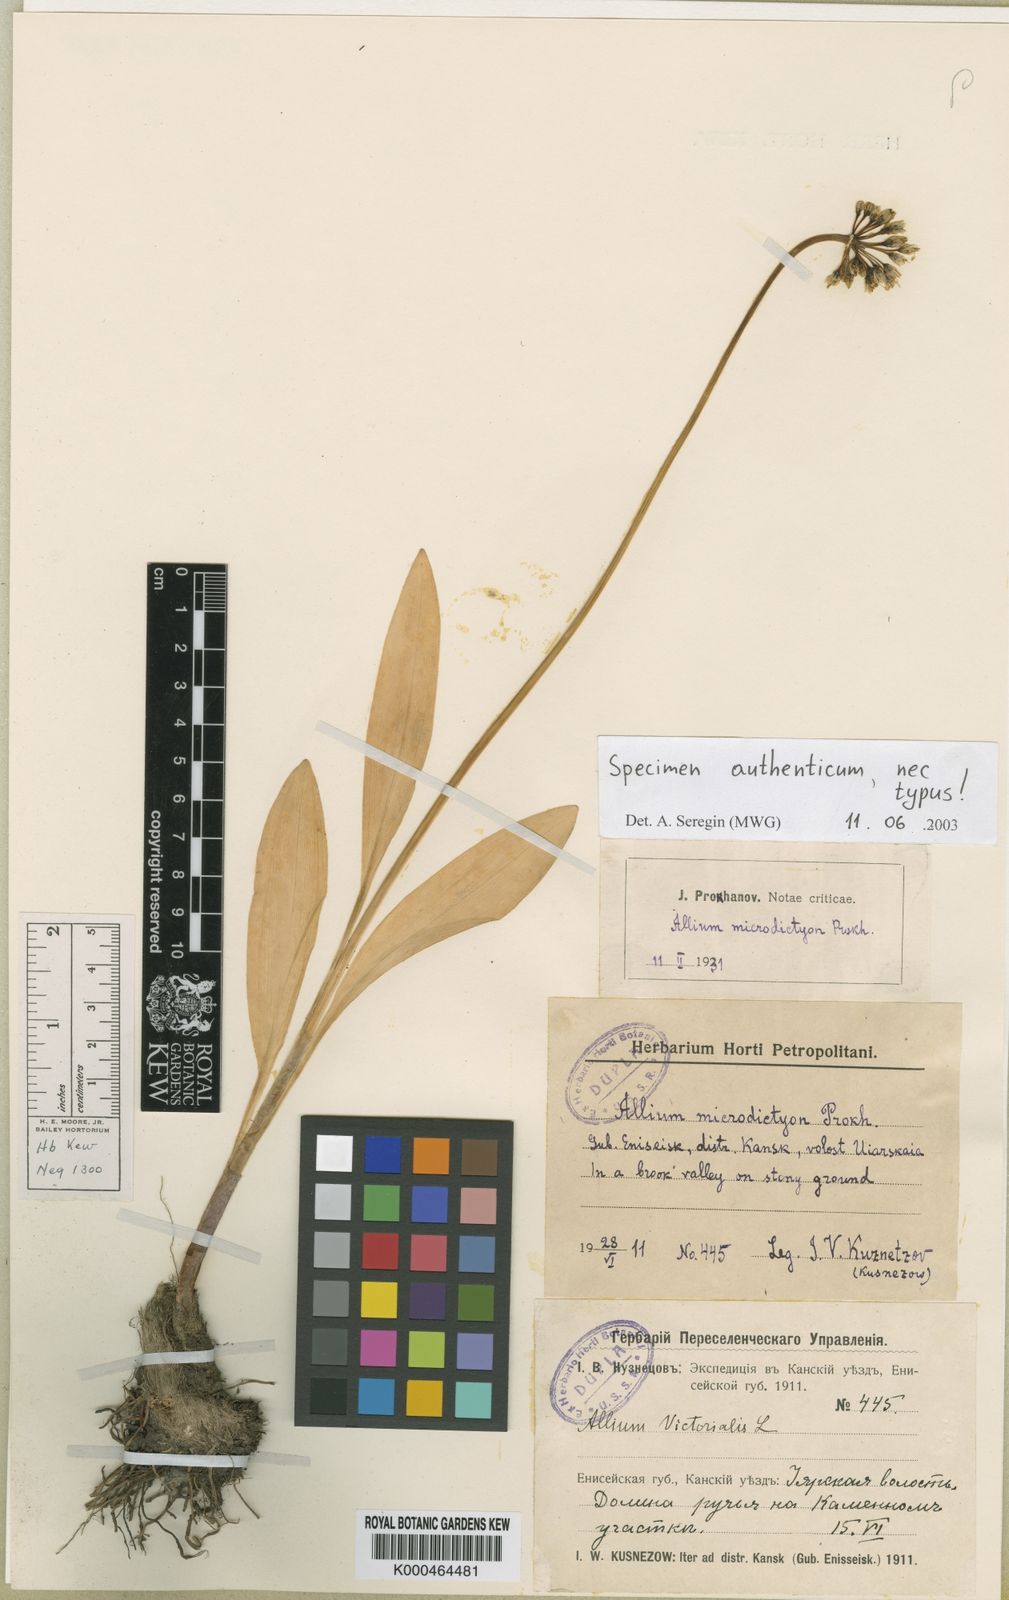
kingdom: Plantae
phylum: Tracheophyta
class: Liliopsida
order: Asparagales
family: Amaryllidaceae
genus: Allium
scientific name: Allium victorialis
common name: Alpine leek
